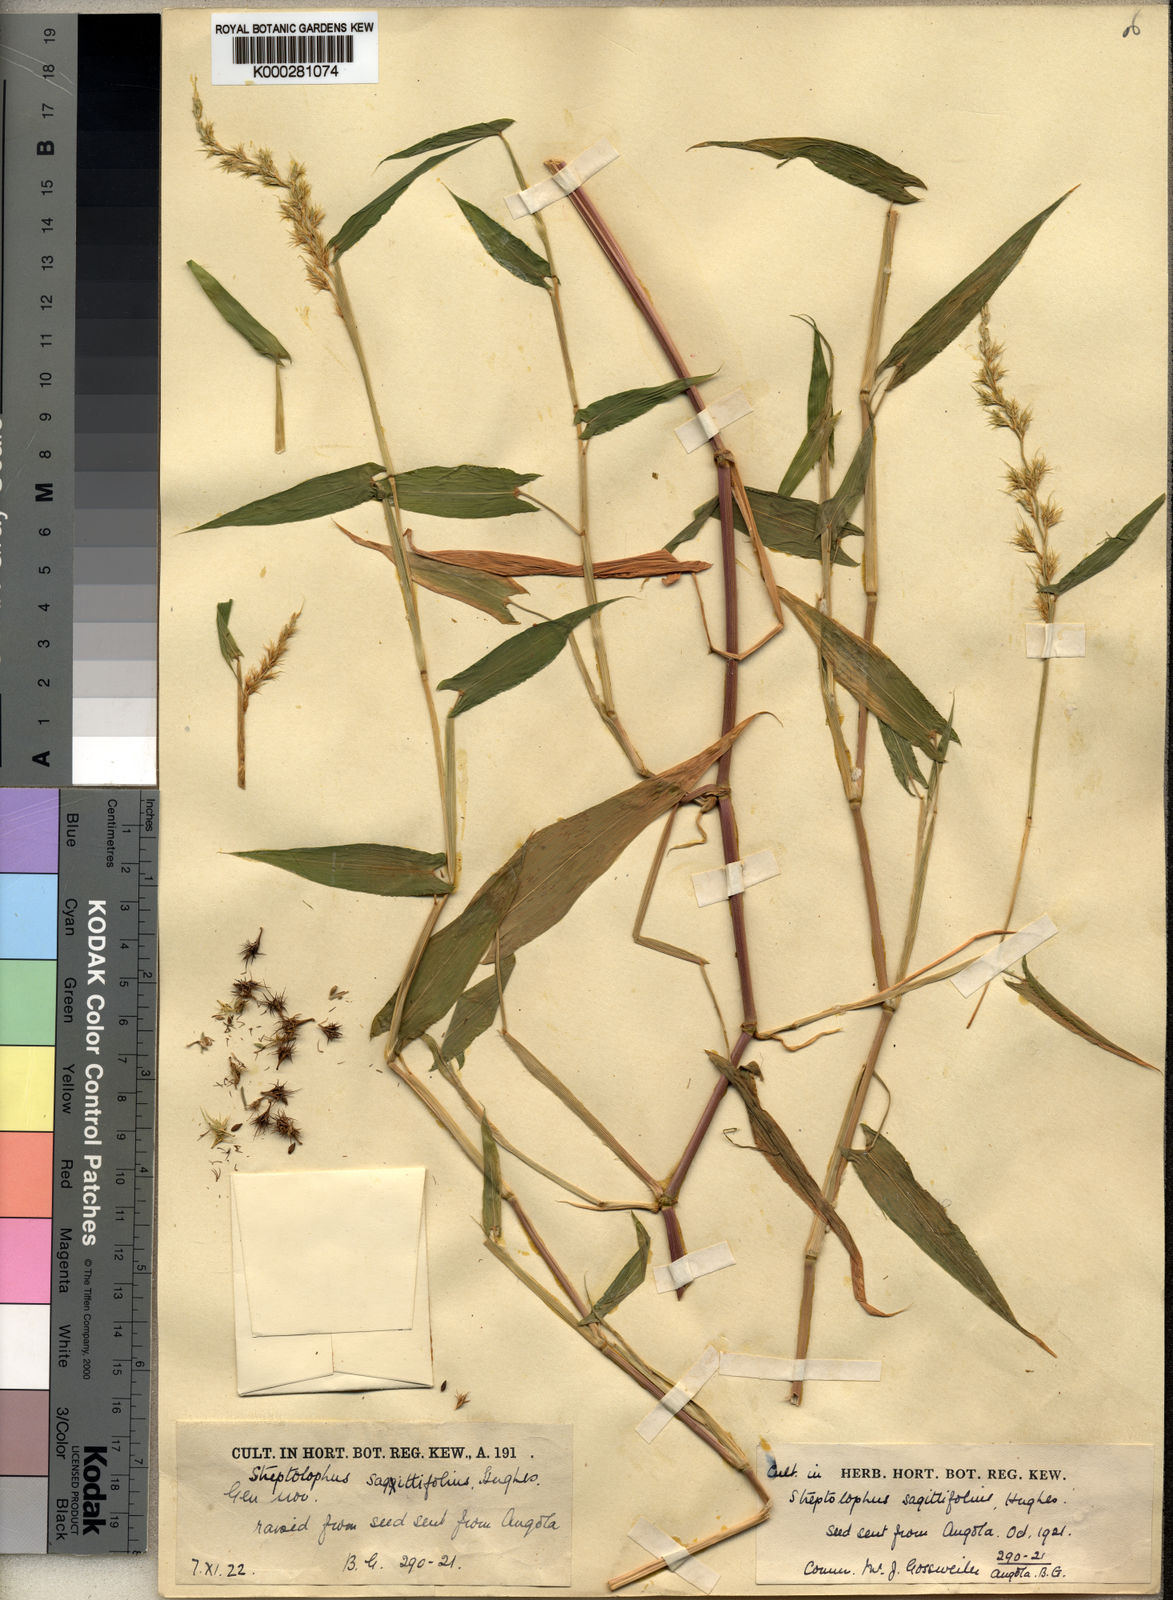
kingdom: Plantae
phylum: Tracheophyta
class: Liliopsida
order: Poales
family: Poaceae
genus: Streptolophus
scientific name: Streptolophus sagittifolius
